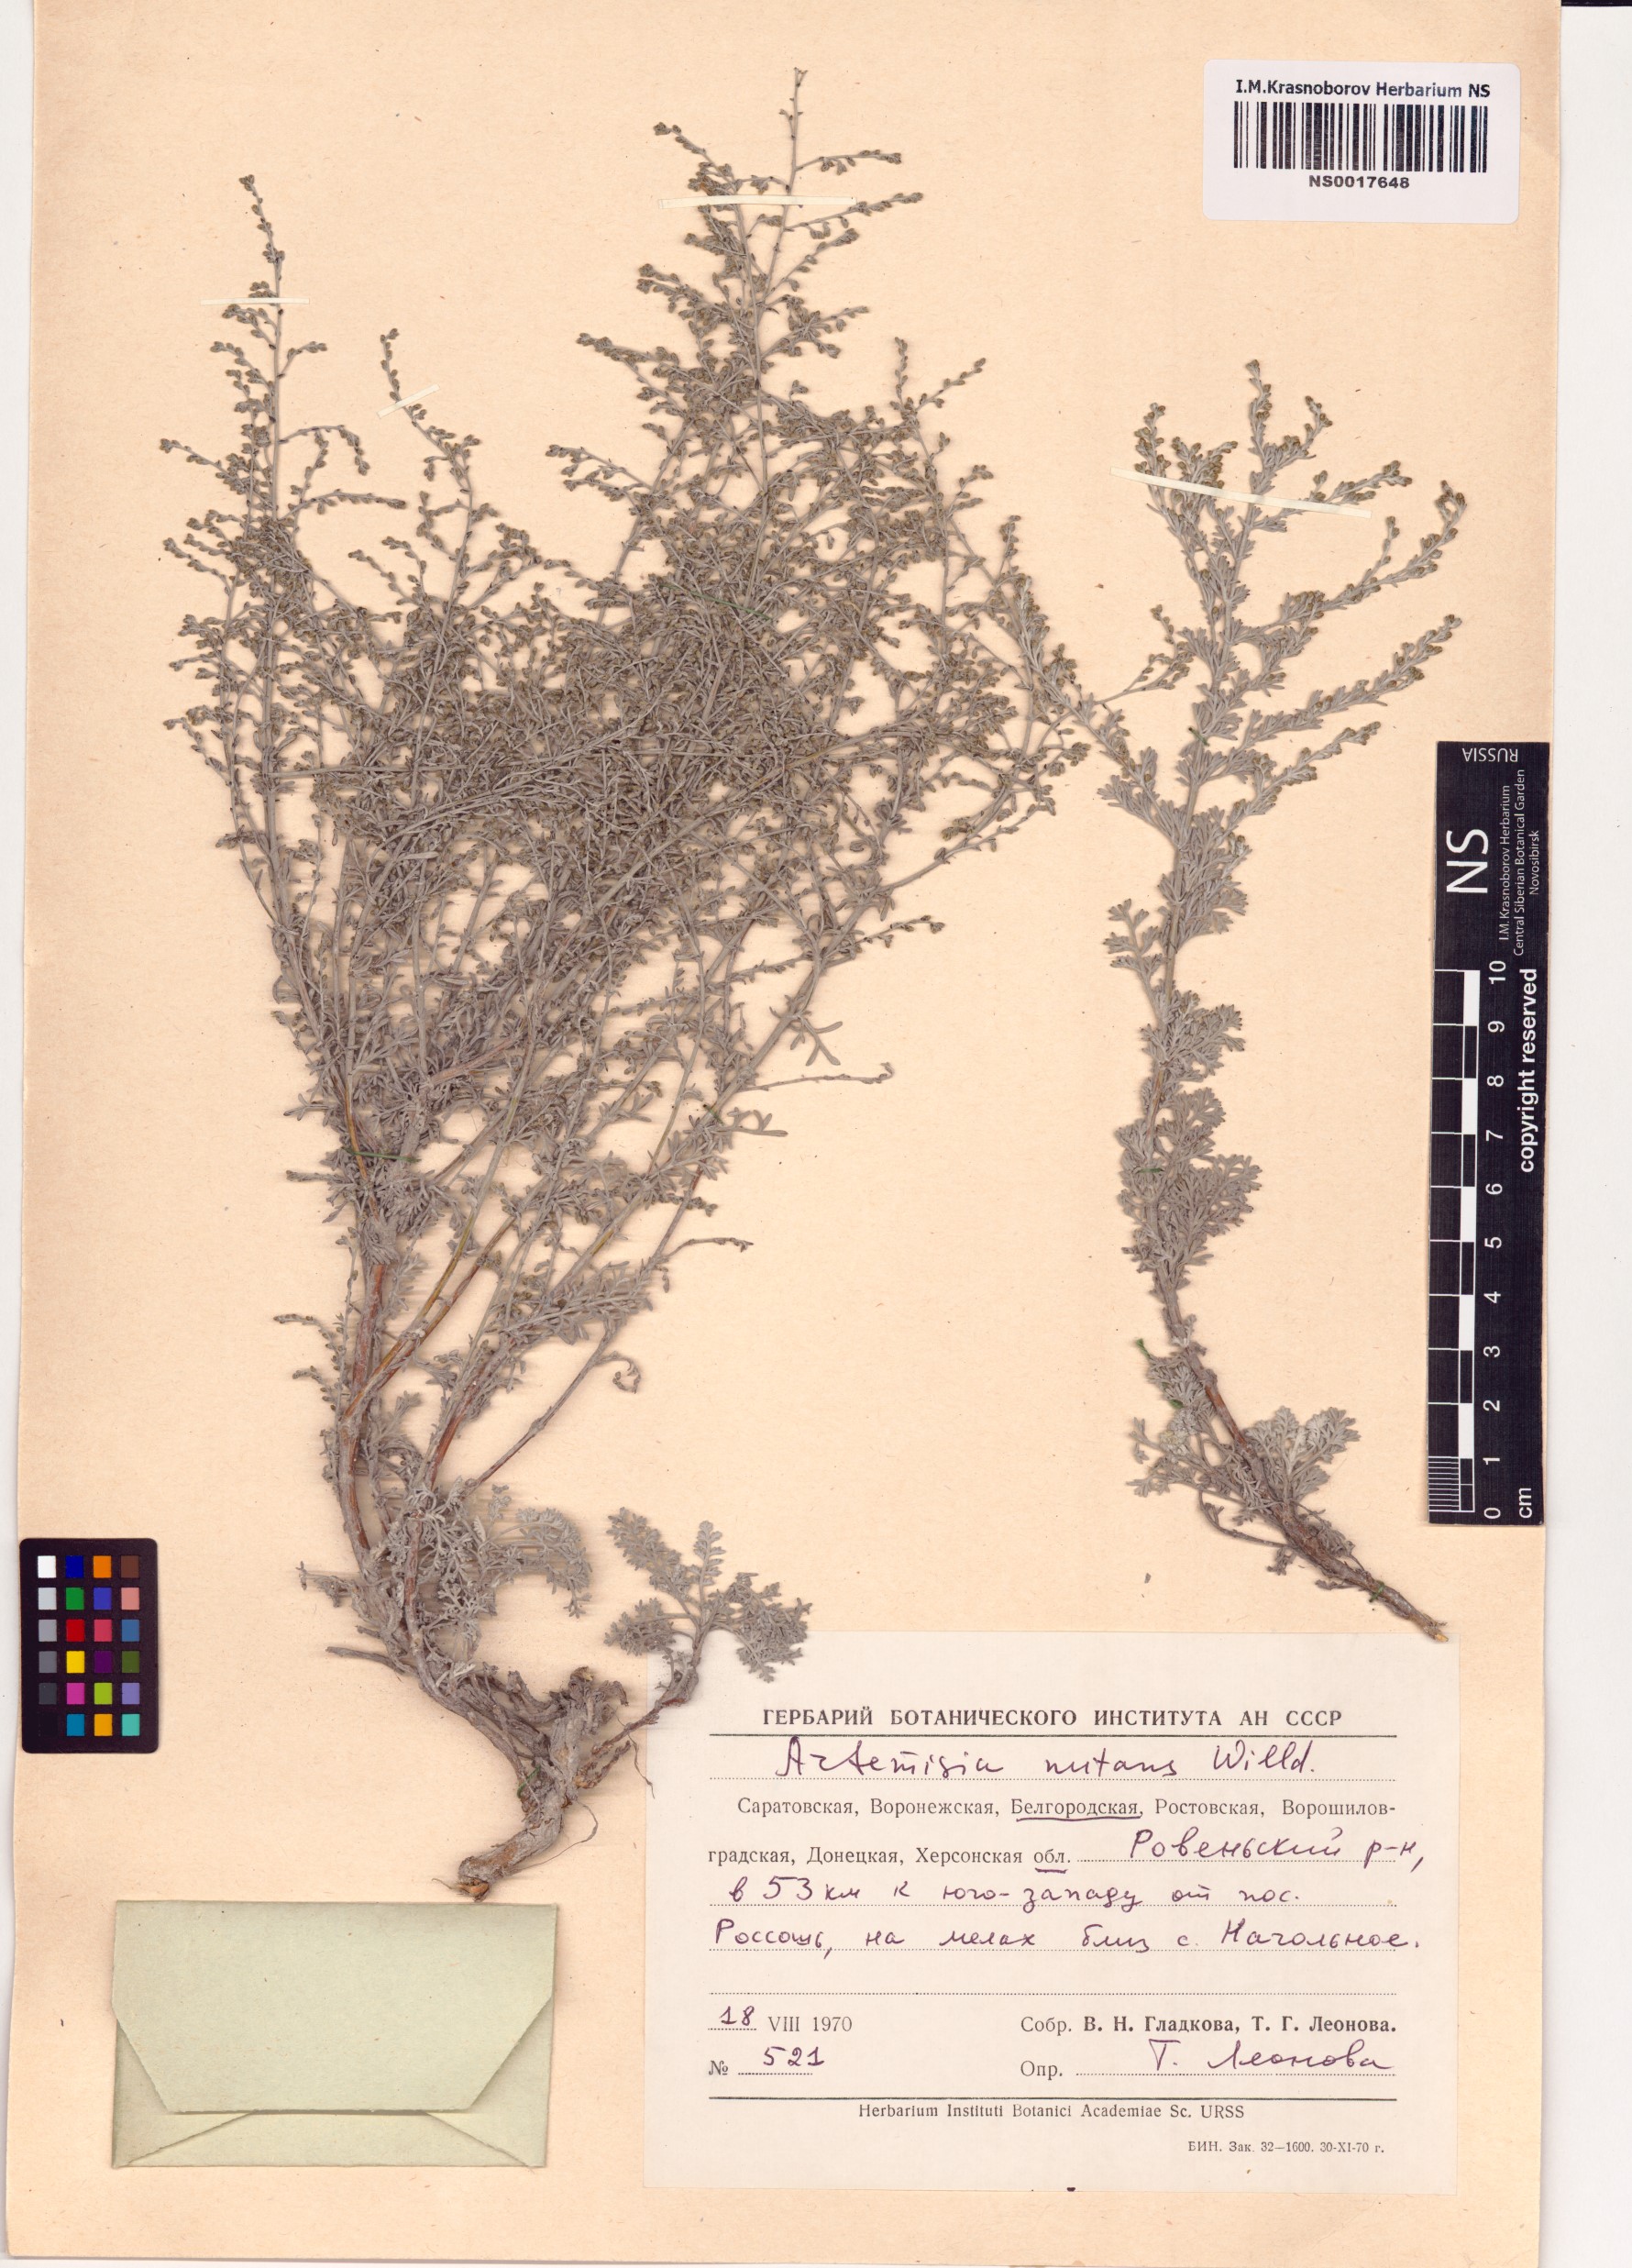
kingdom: Plantae
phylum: Tracheophyta
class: Magnoliopsida
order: Asterales
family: Asteraceae
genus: Artemisia
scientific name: Artemisia nutans
